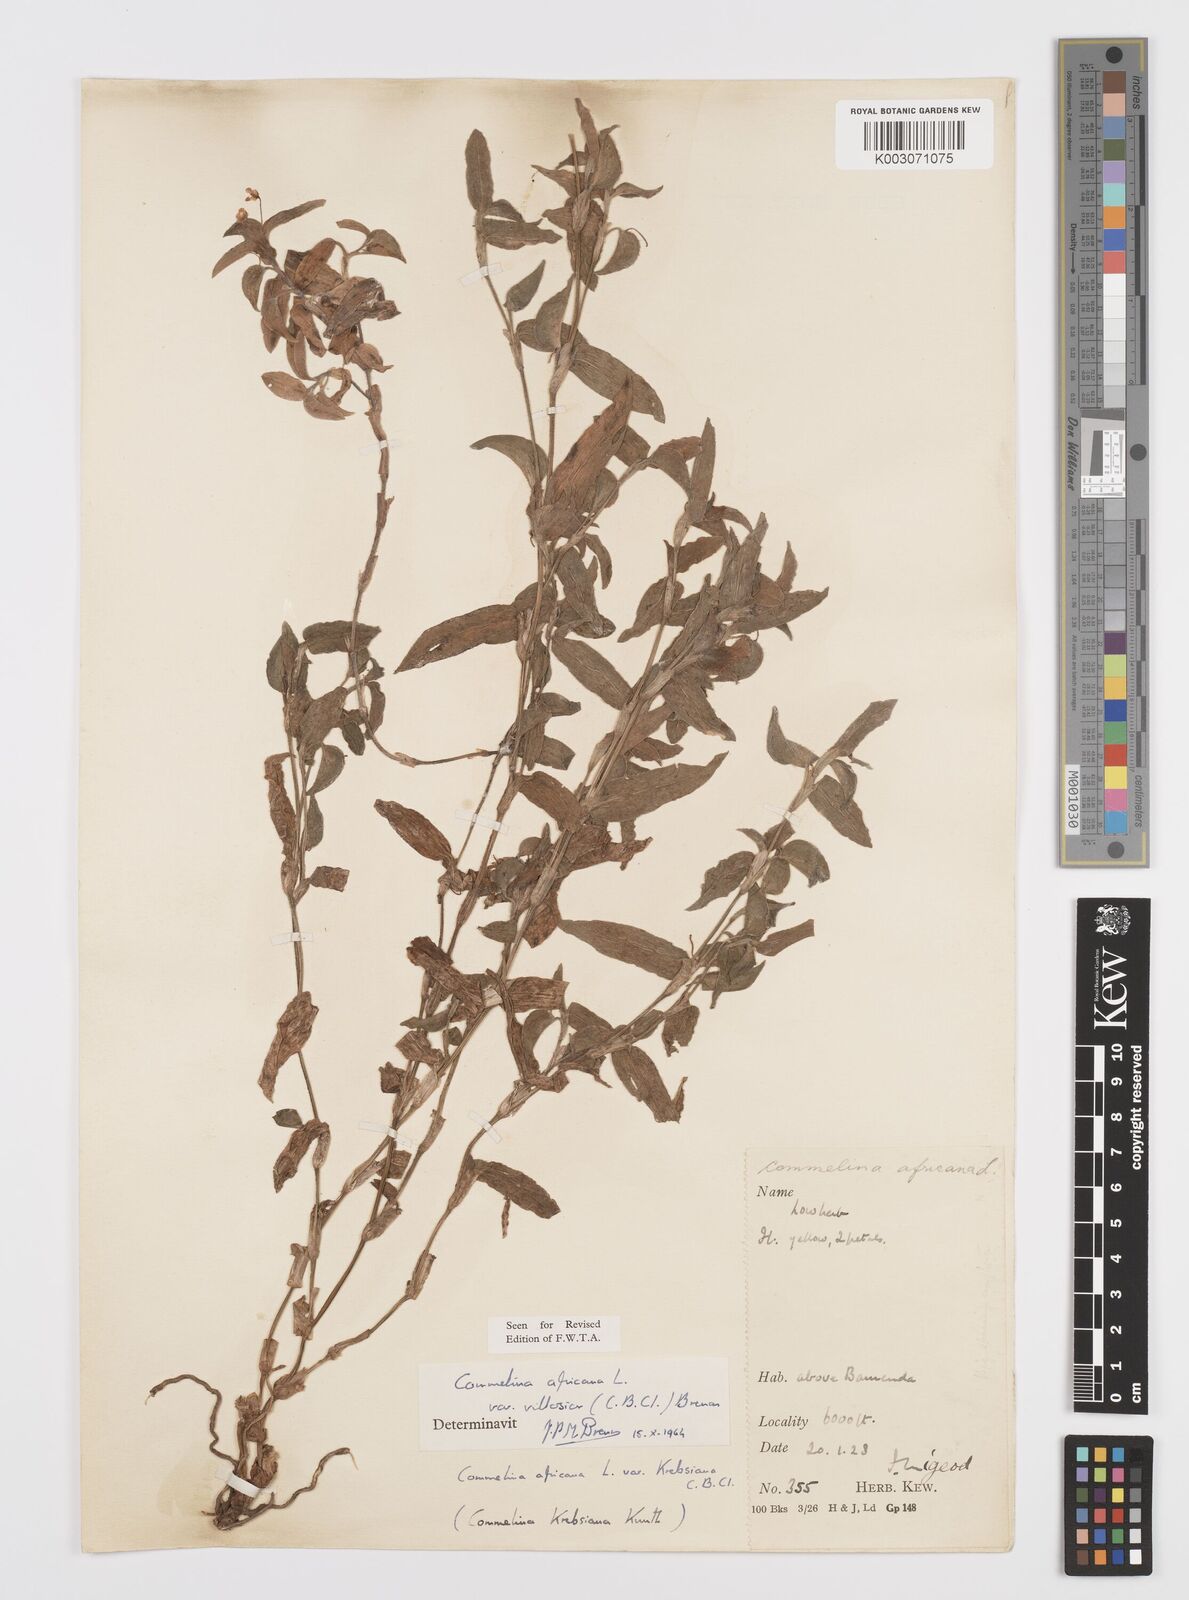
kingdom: Plantae
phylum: Tracheophyta
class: Liliopsida
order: Commelinales
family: Commelinaceae
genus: Commelina
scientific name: Commelina africana
